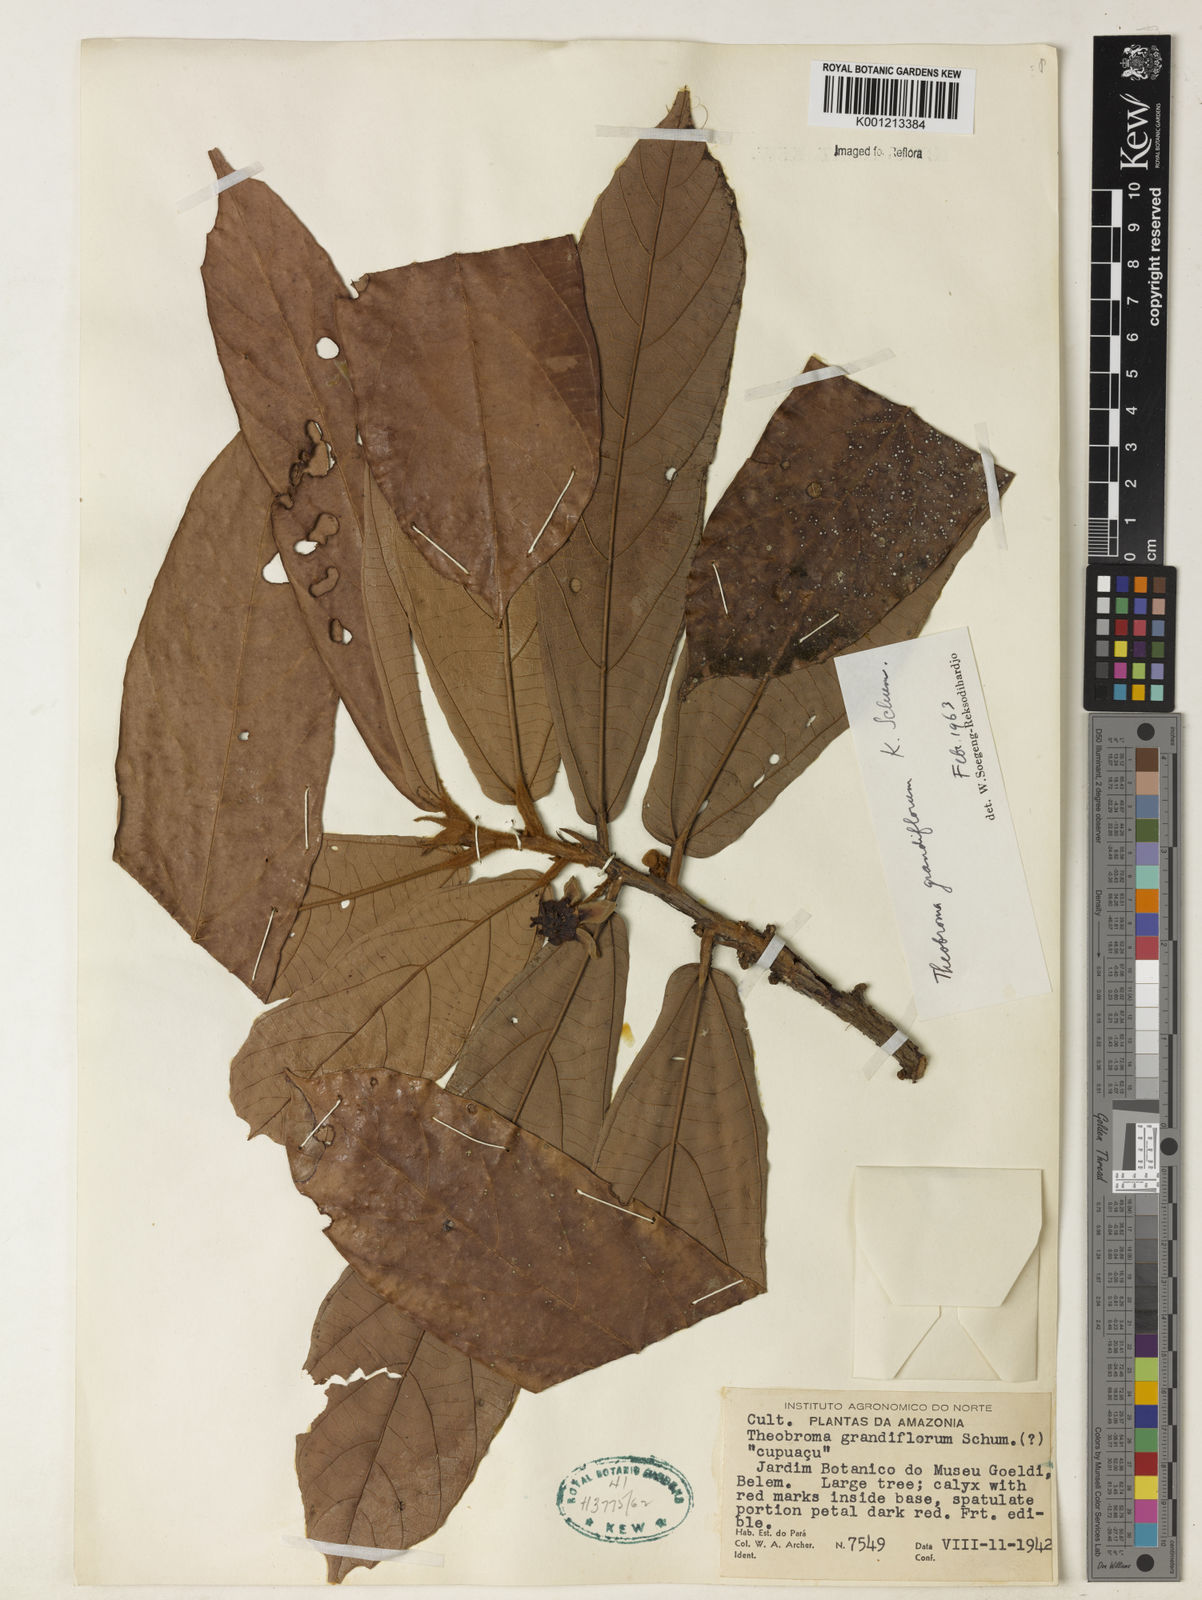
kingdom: Plantae
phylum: Tracheophyta
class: Magnoliopsida
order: Malvales
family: Malvaceae
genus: Theobroma
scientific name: Theobroma grandiflorum
